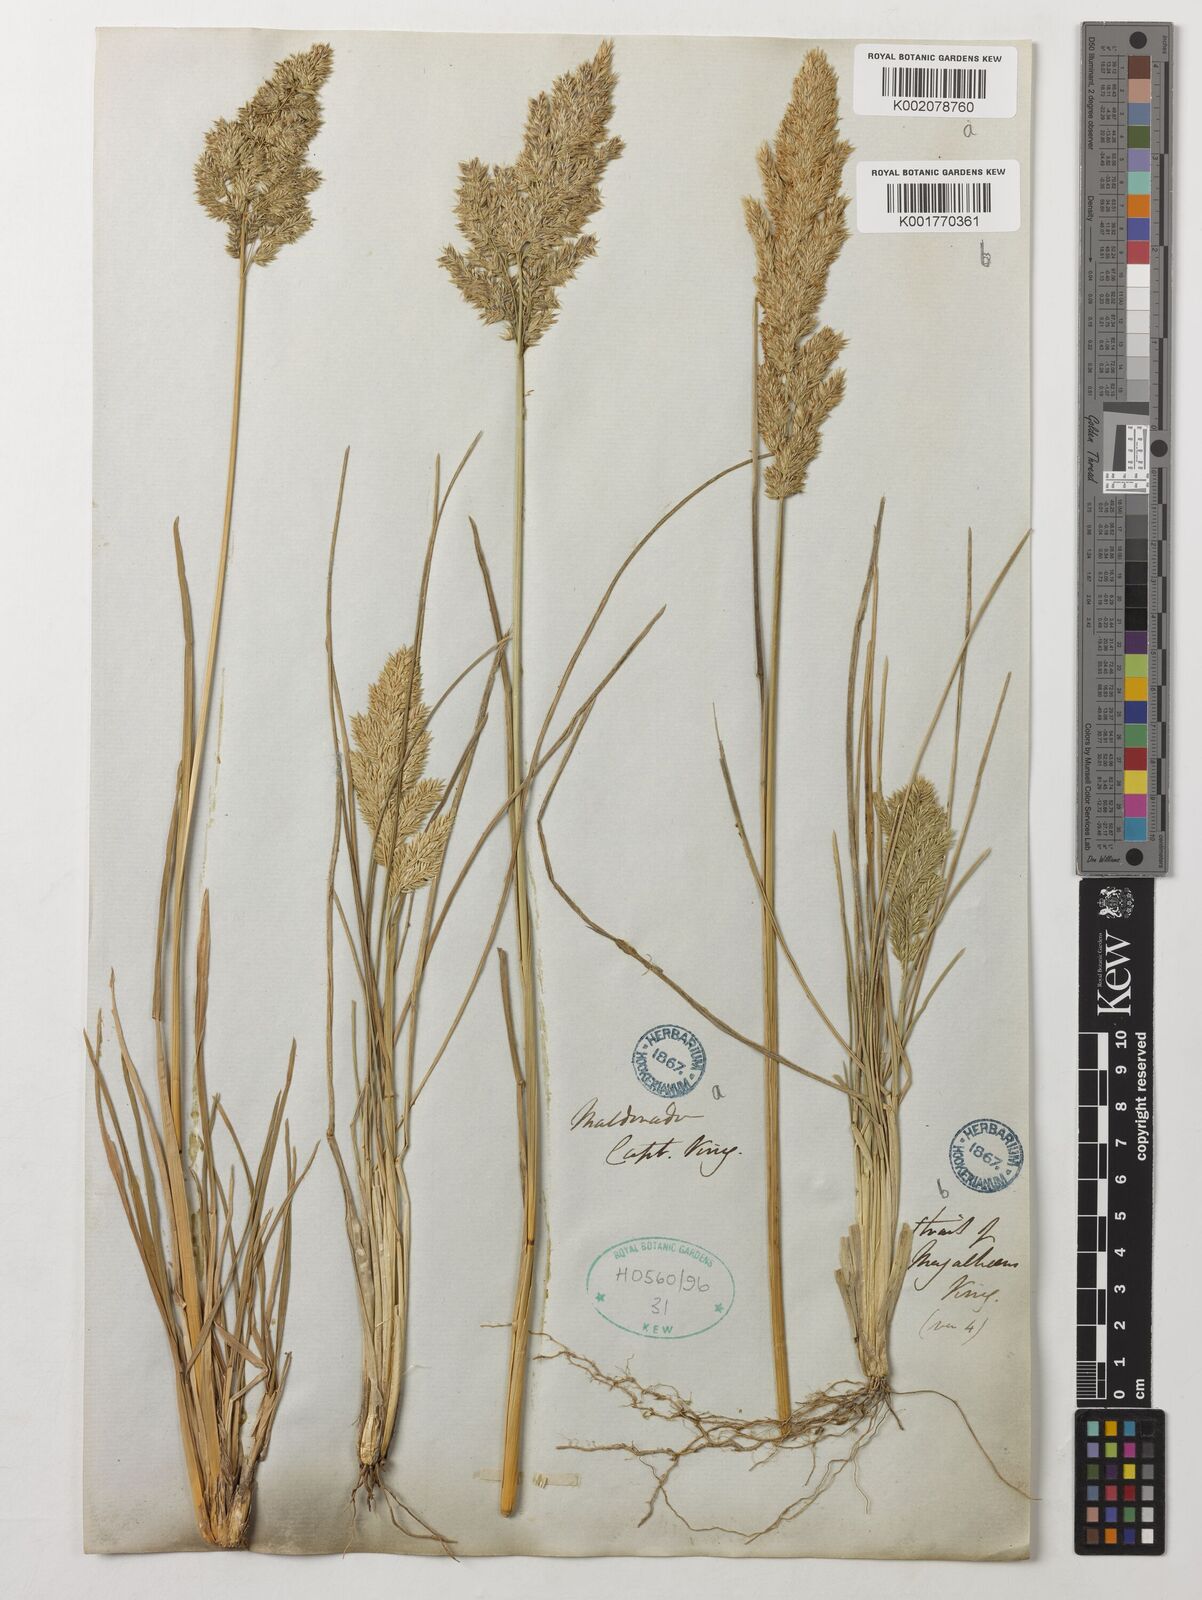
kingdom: Plantae
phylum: Tracheophyta
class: Liliopsida
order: Poales
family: Poaceae
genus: Poa
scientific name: Poa
